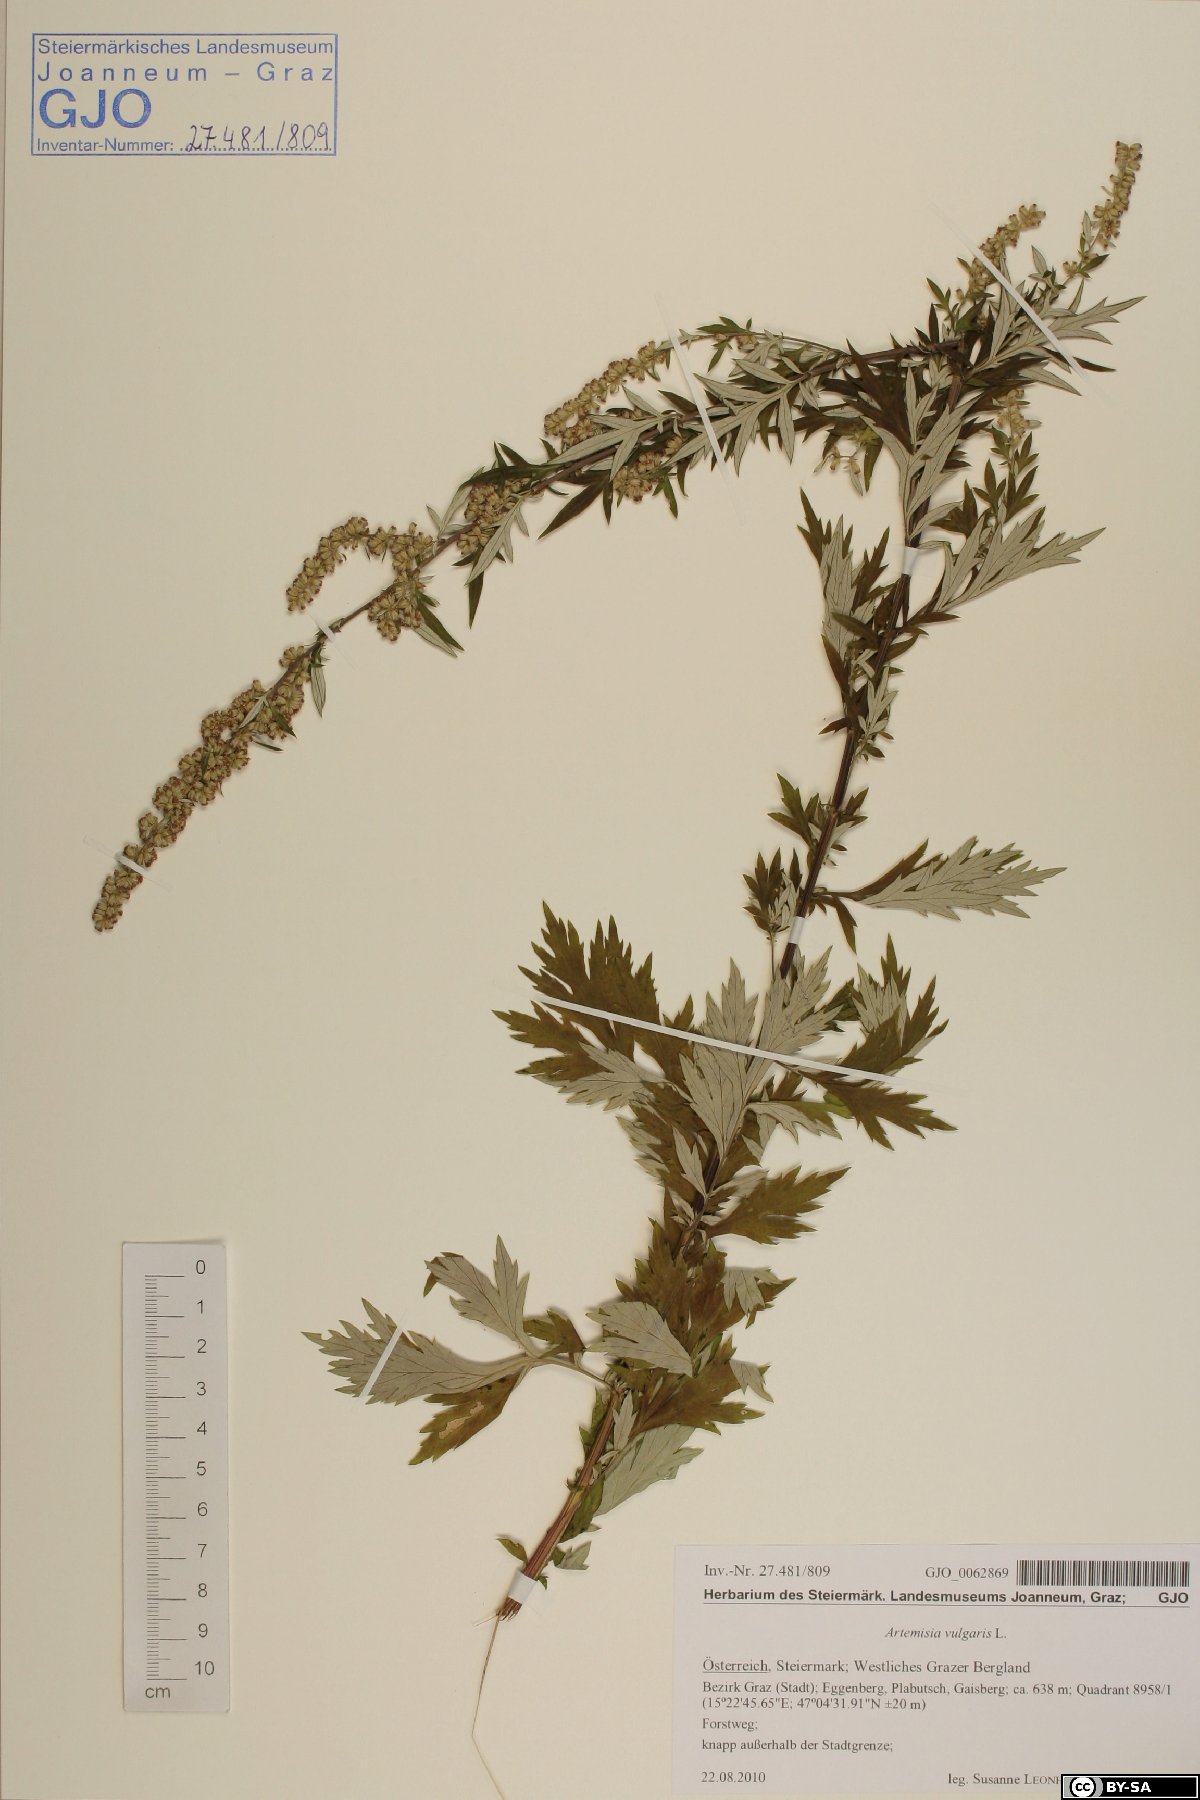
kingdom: Plantae
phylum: Tracheophyta
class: Magnoliopsida
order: Asterales
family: Asteraceae
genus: Artemisia
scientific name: Artemisia vulgaris
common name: Mugwort
